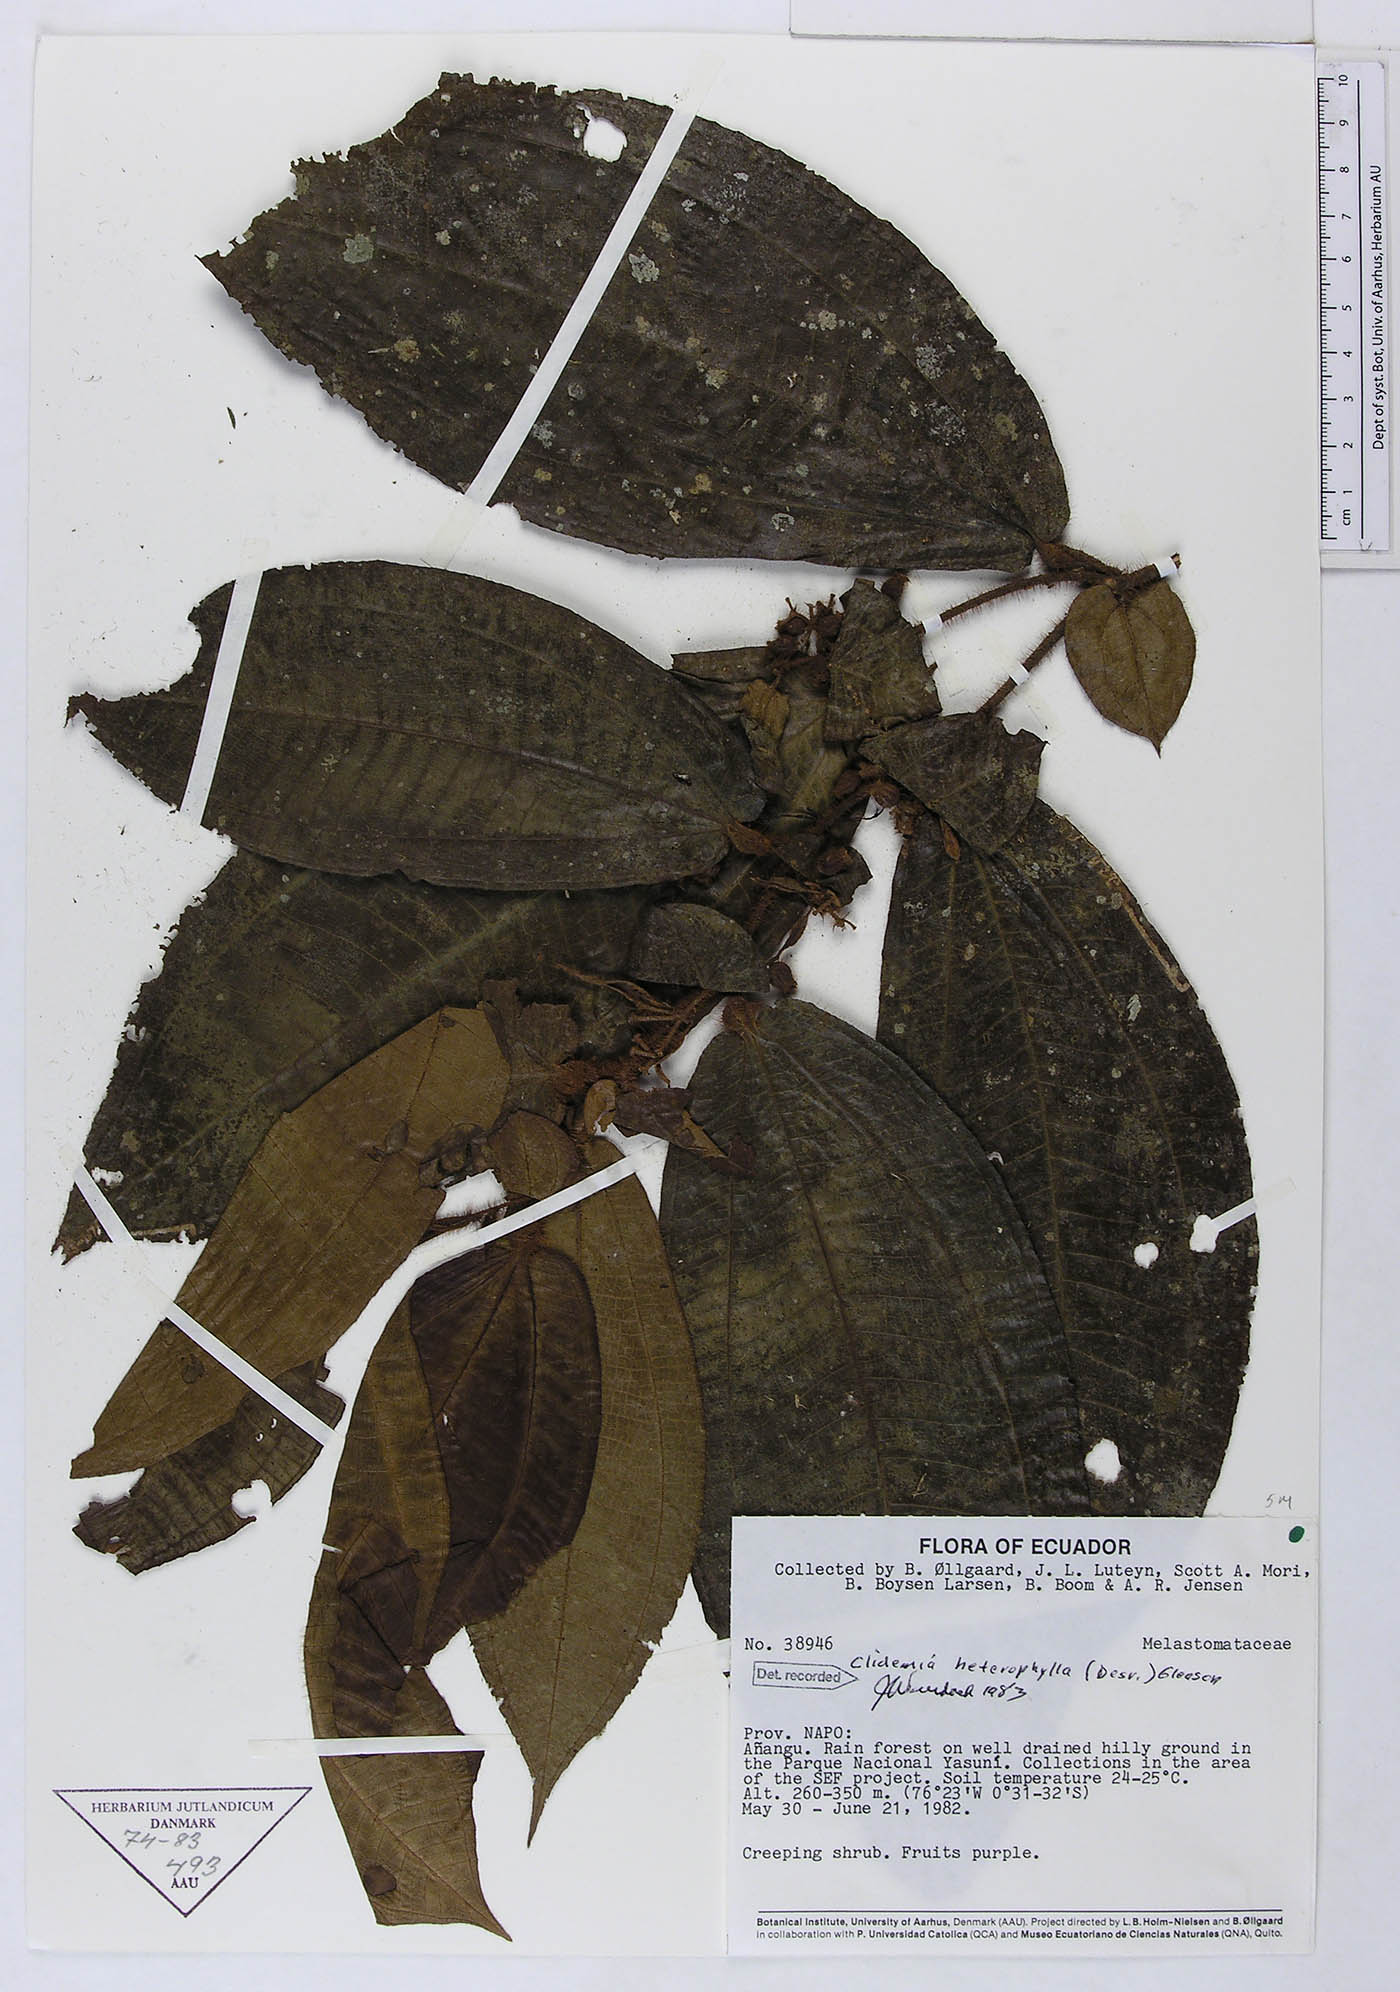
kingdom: Plantae
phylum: Tracheophyta
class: Magnoliopsida
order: Myrtales
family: Melastomataceae
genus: Miconia
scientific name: Miconia formicoheterophylla
